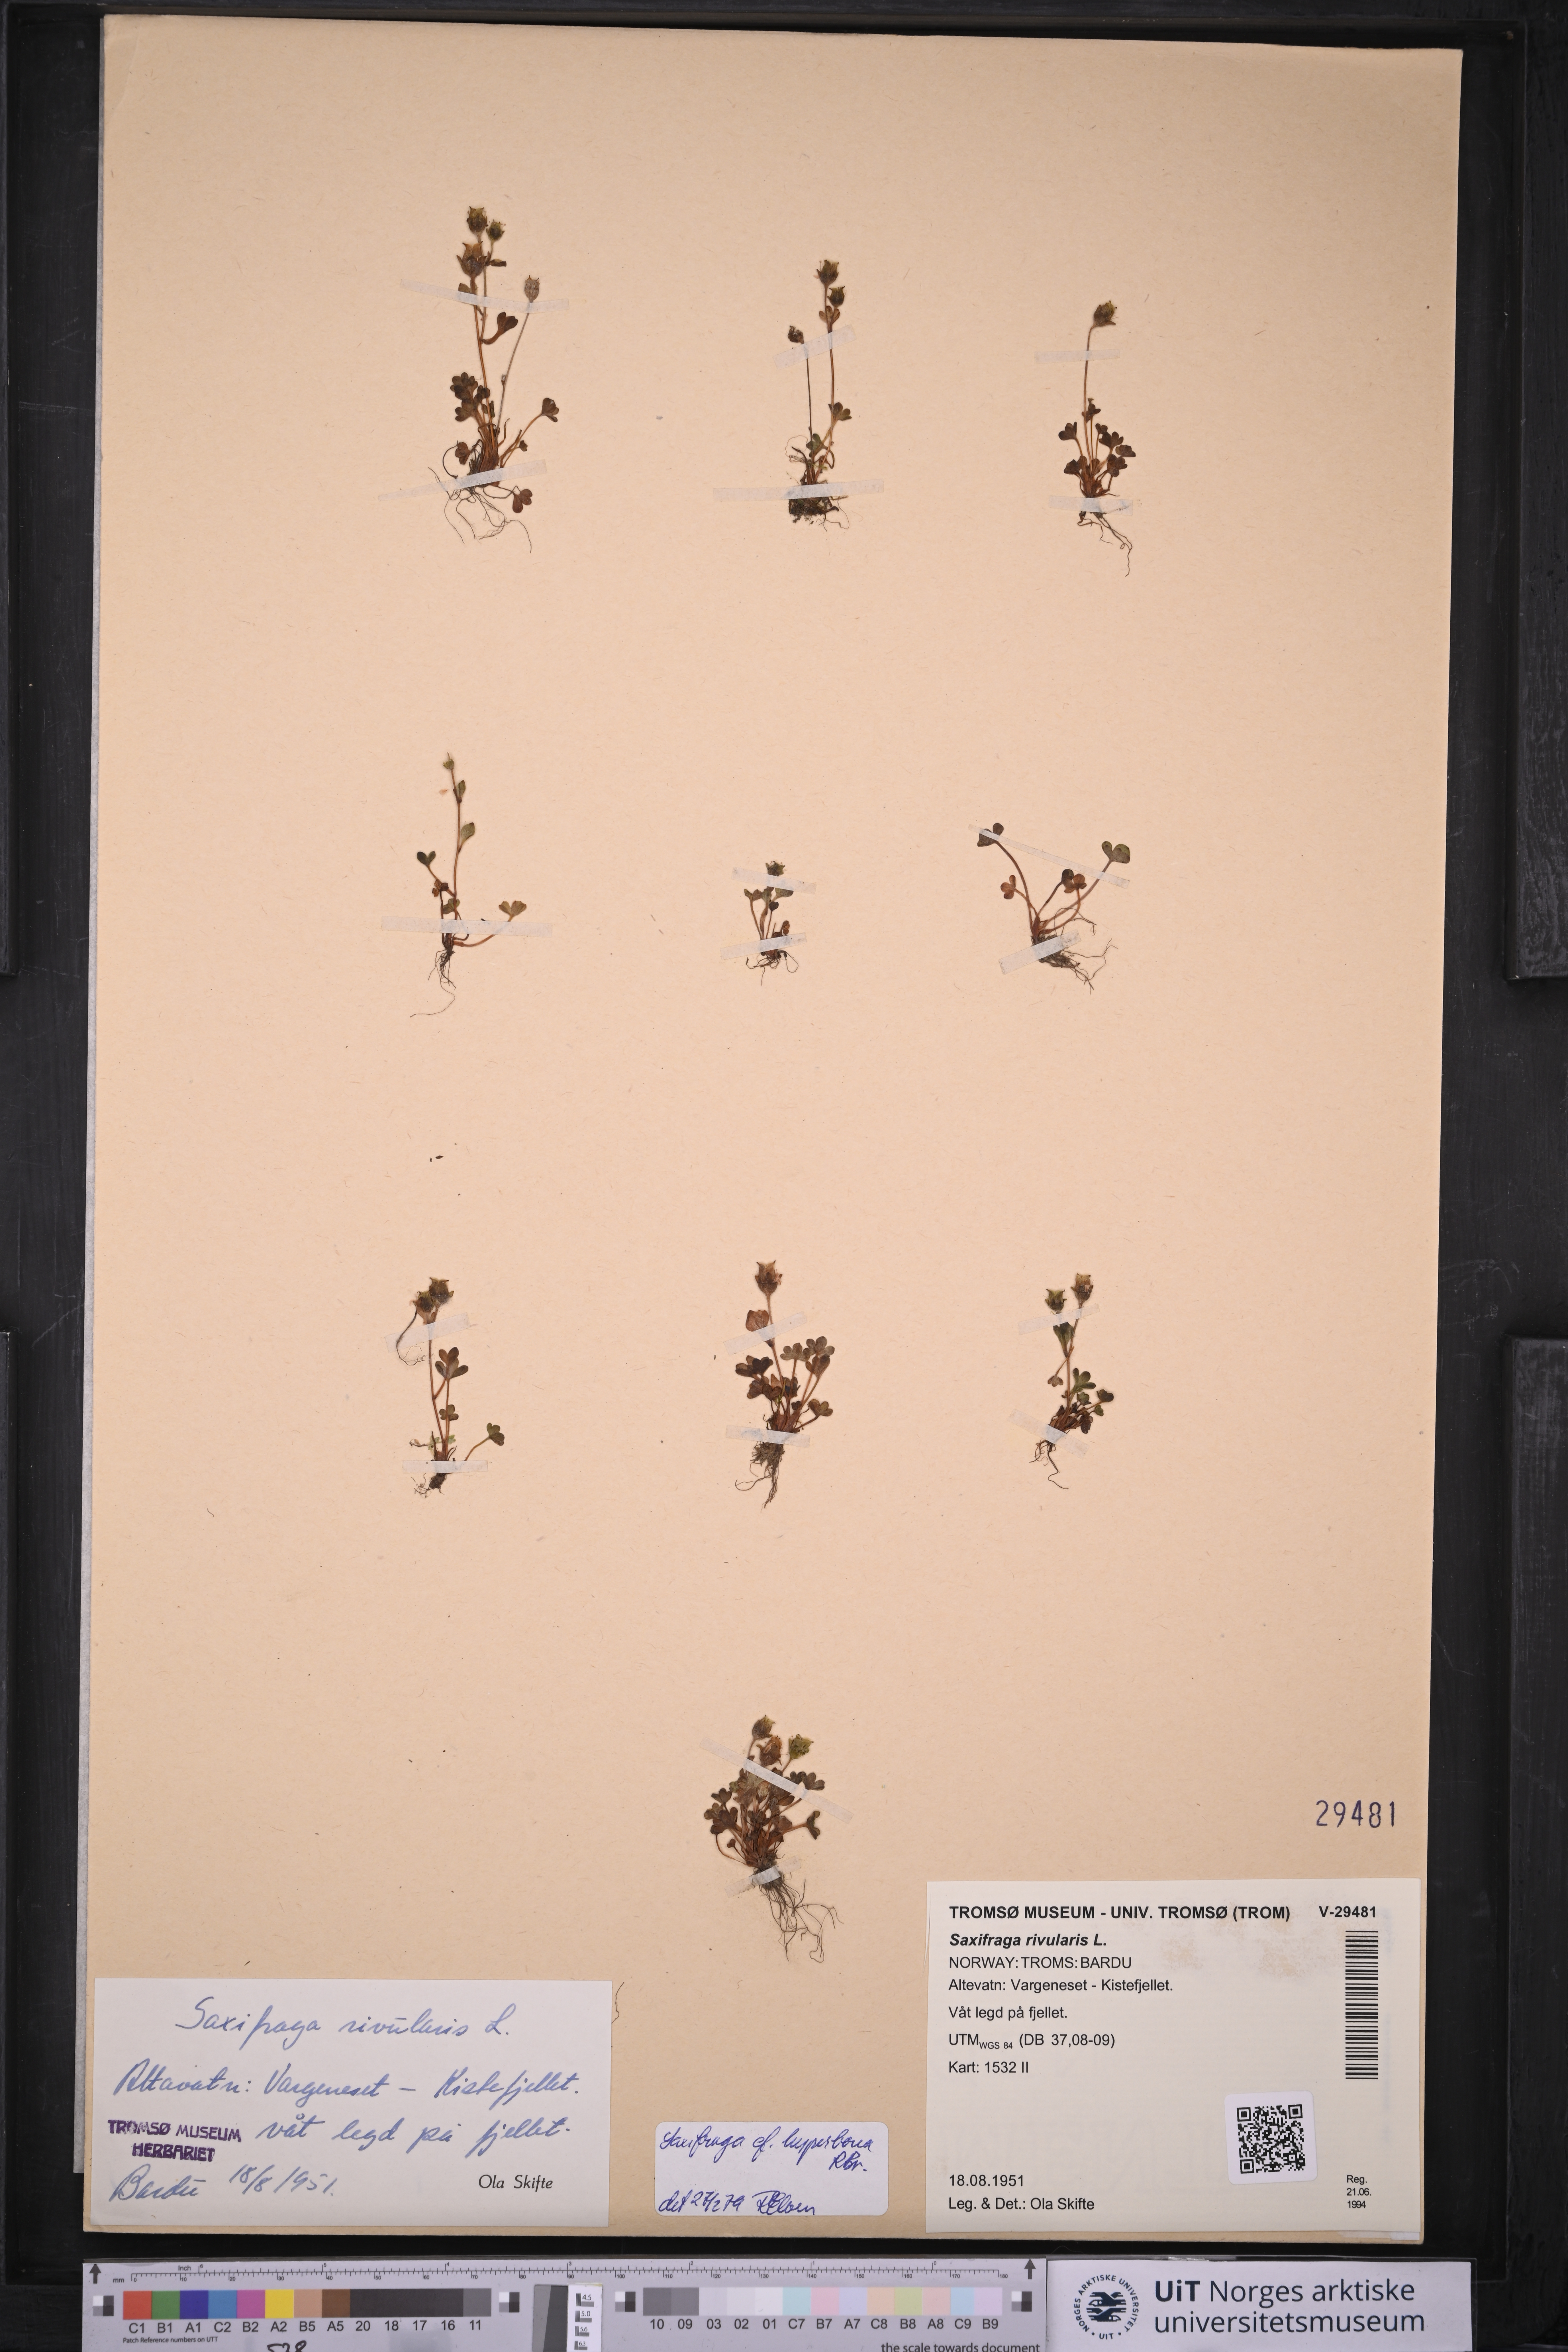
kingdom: Plantae
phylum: Tracheophyta
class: Magnoliopsida
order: Saxifragales
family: Saxifragaceae
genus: Saxifraga
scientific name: Saxifraga rivularis
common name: Highland saxifrage
